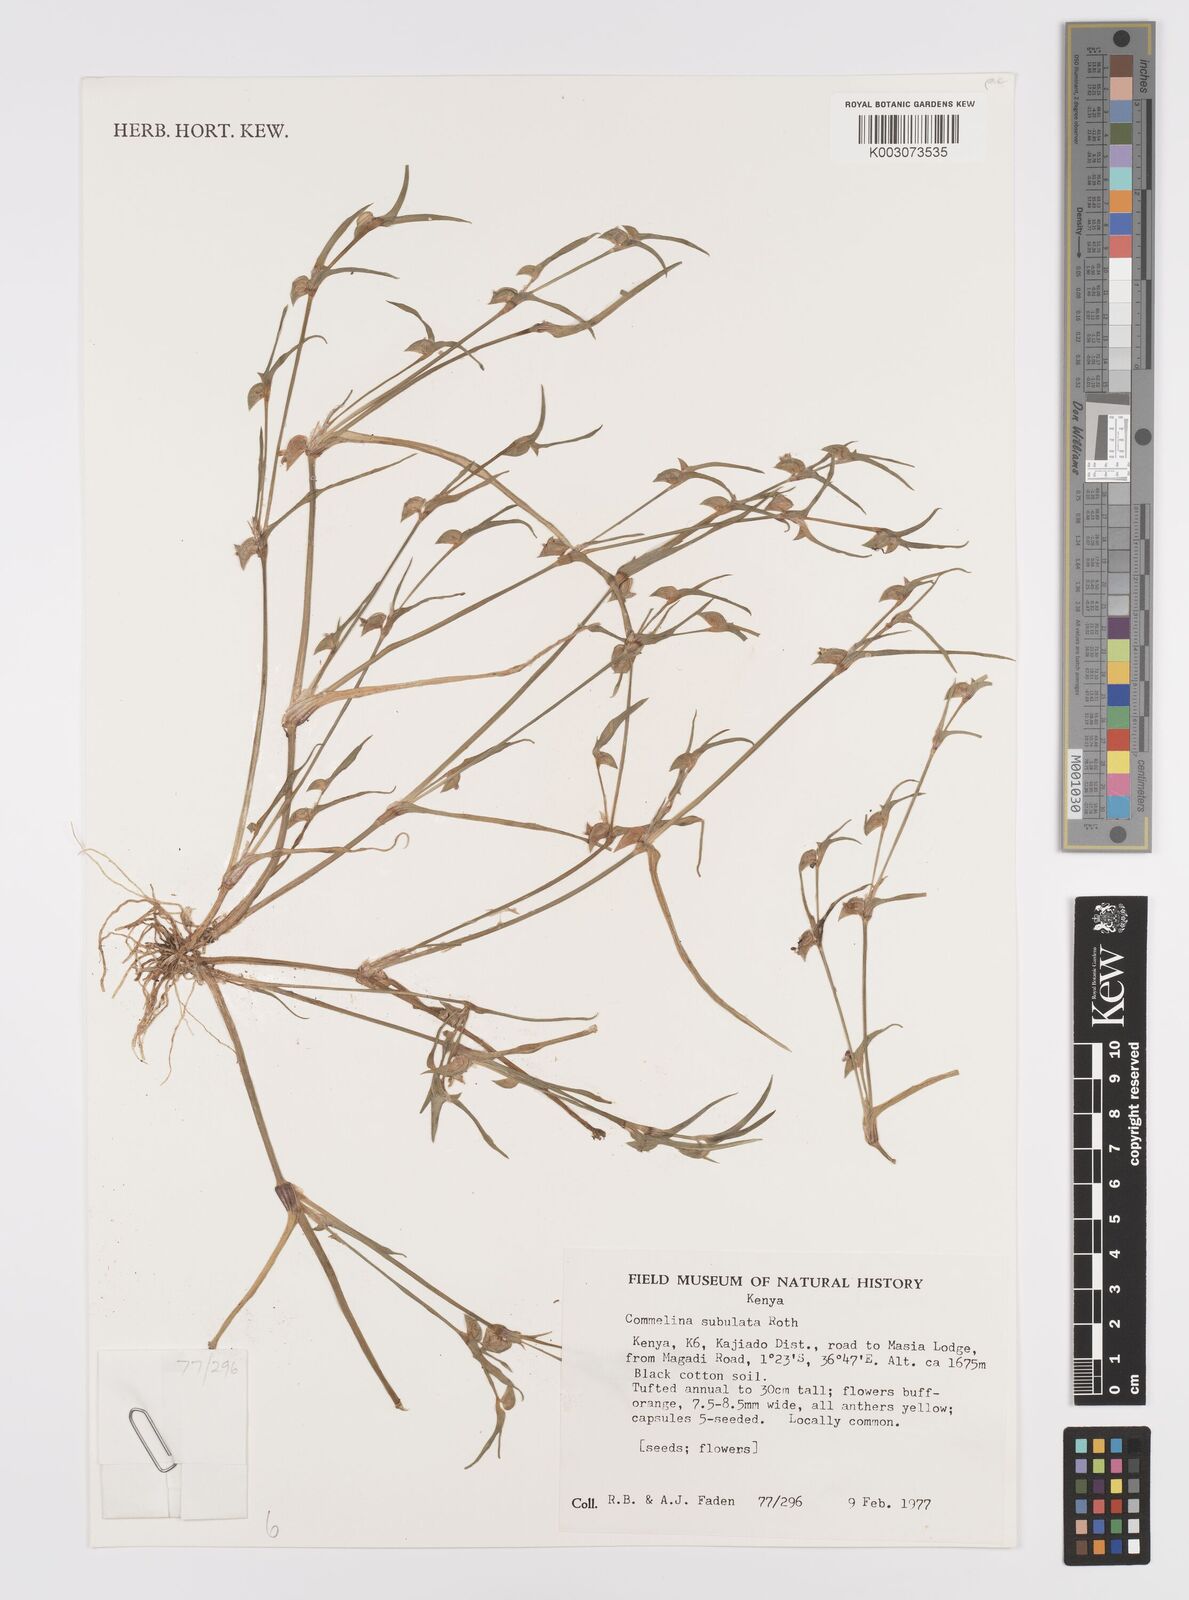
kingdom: Plantae
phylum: Tracheophyta
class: Liliopsida
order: Commelinales
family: Commelinaceae
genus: Commelina
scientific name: Commelina subulata
